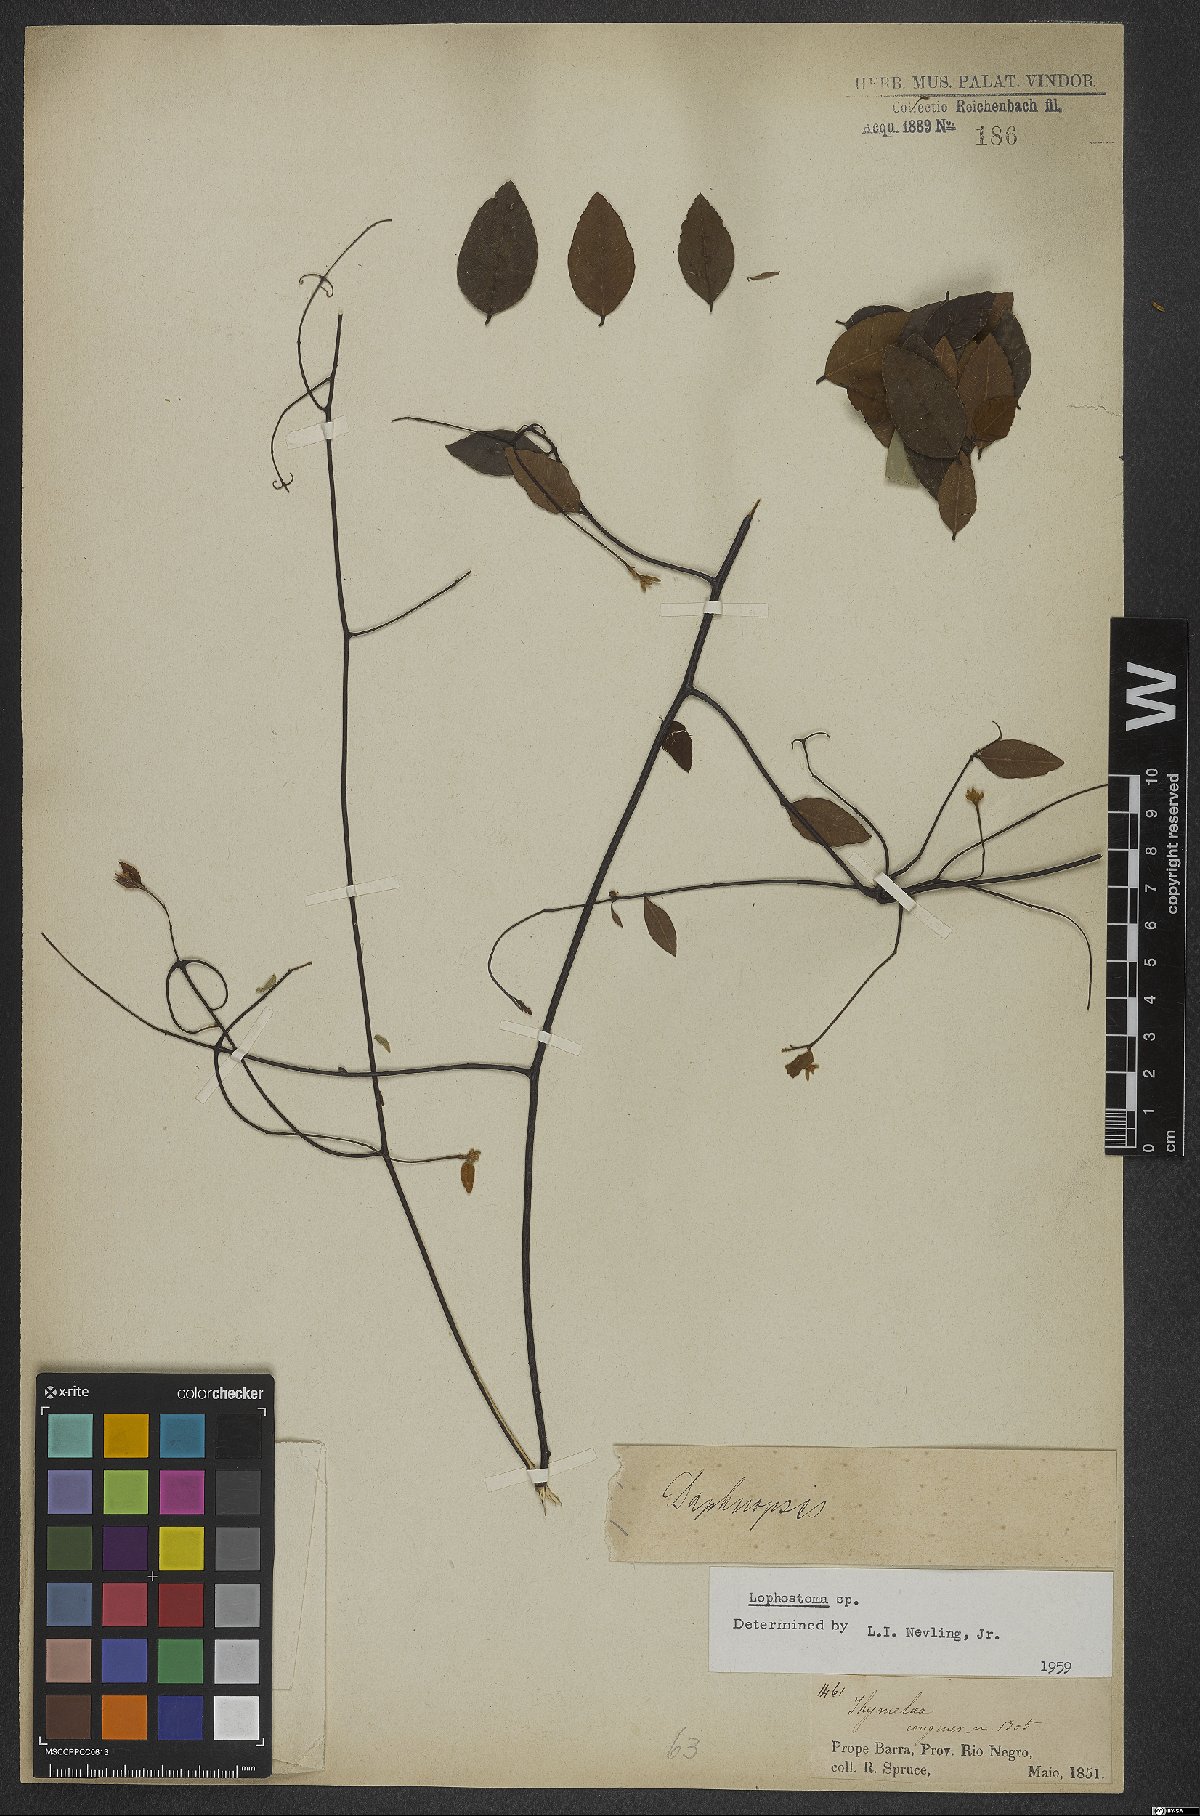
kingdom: Plantae
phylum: Tracheophyta
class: Magnoliopsida
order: Malvales
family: Thymelaeaceae
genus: Lophostoma
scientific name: Lophostoma
